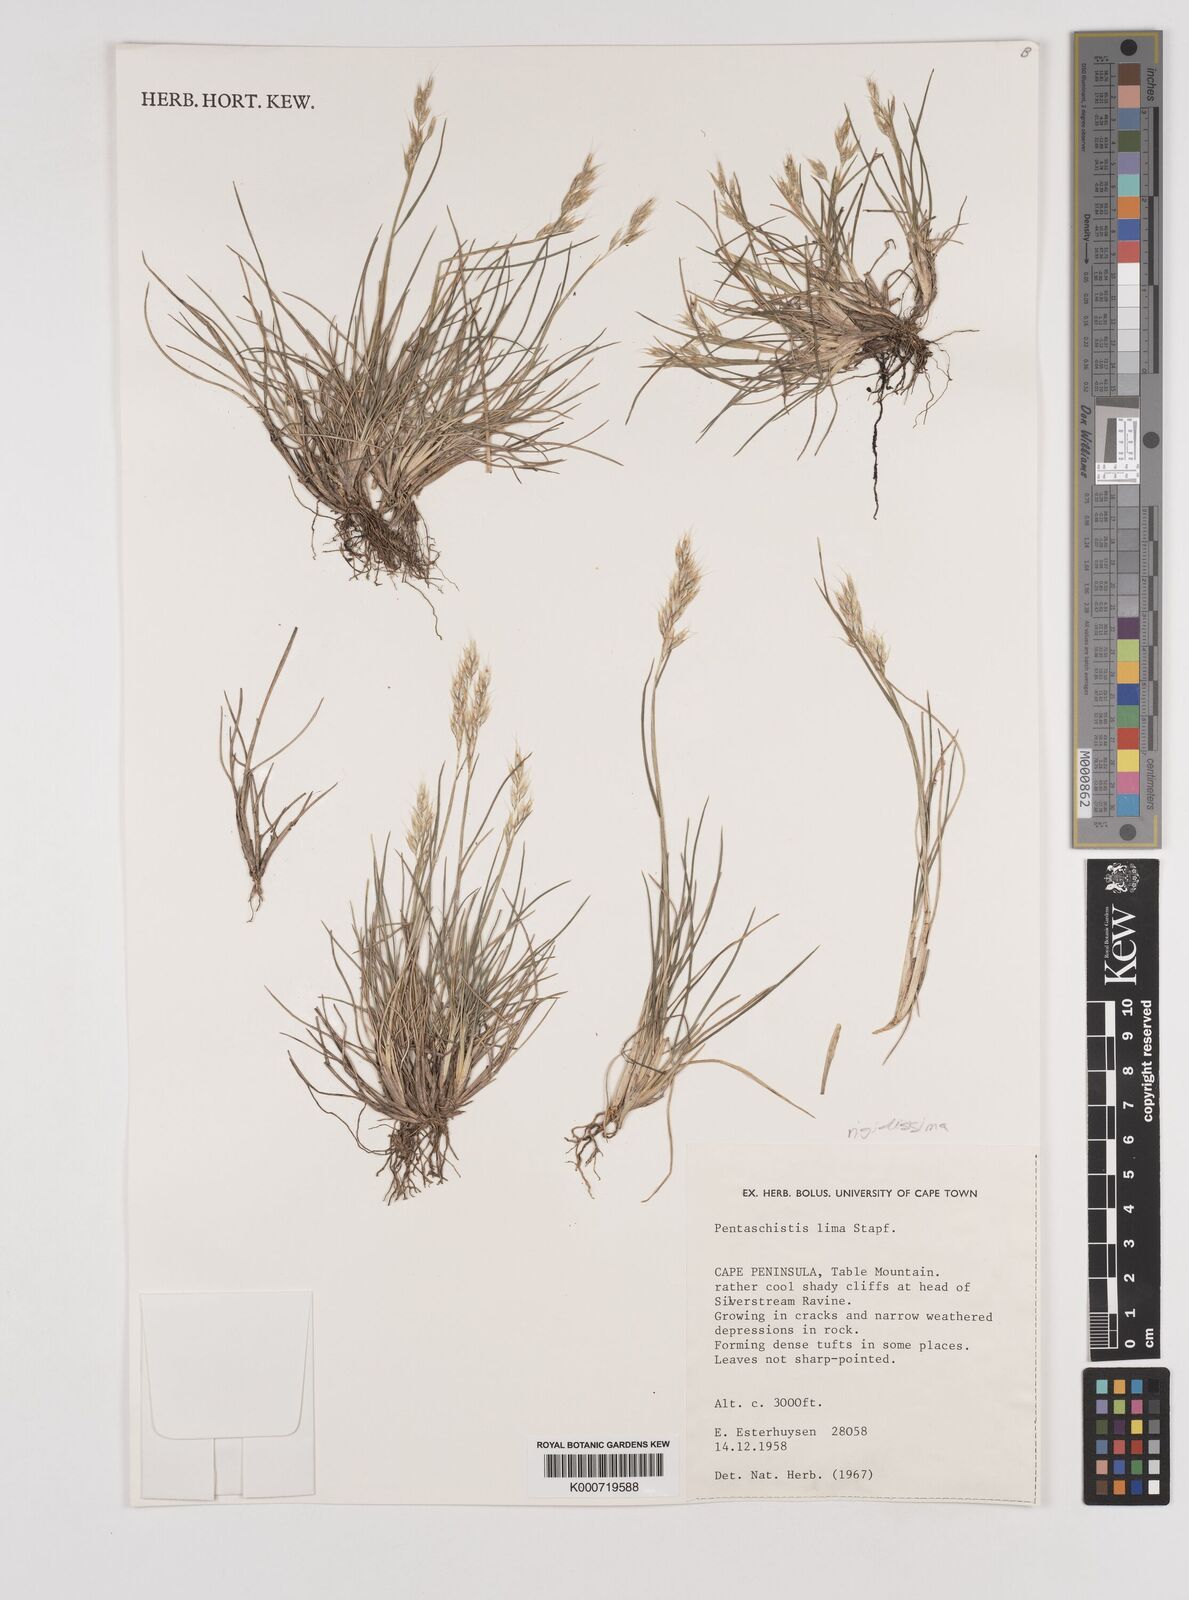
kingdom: Plantae
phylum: Tracheophyta
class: Liliopsida
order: Poales
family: Poaceae
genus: Pentameris
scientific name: Pentameris rigidissima
